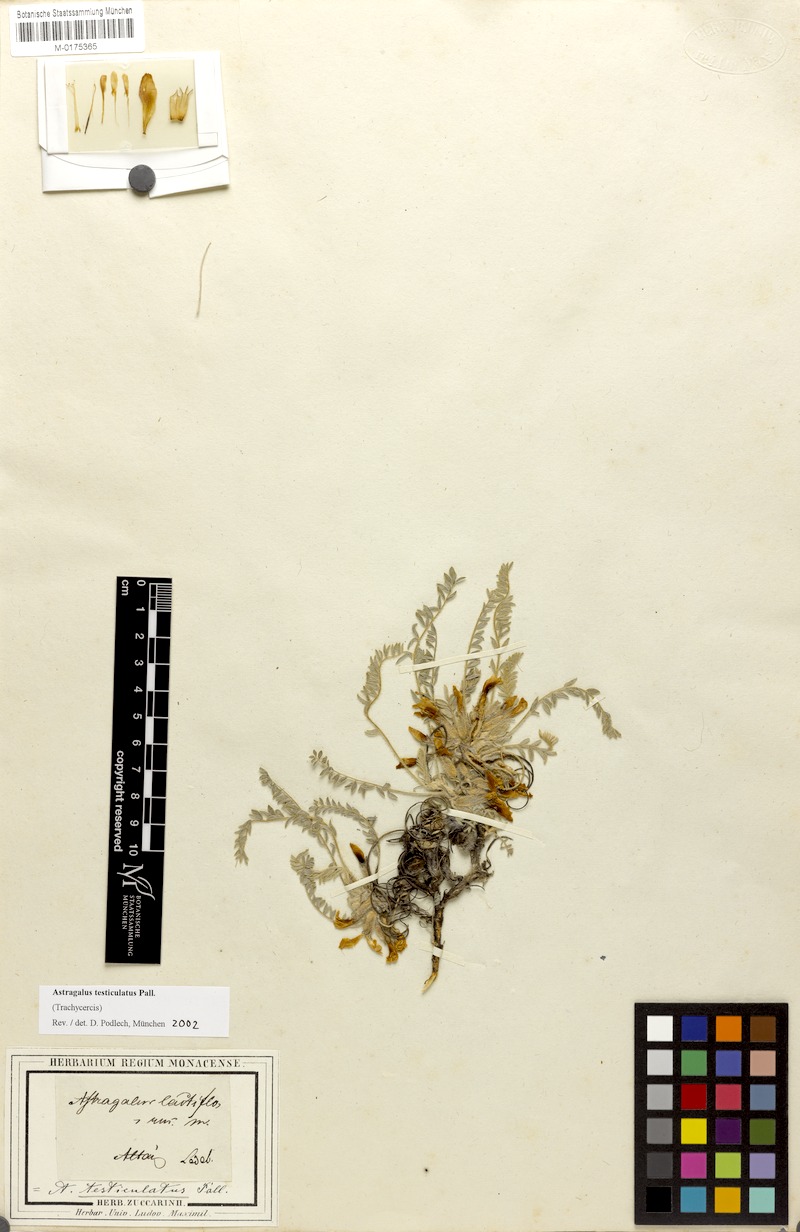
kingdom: Plantae
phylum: Tracheophyta
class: Magnoliopsida
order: Fabales
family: Fabaceae
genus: Astragalus
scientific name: Astragalus testiculatus
